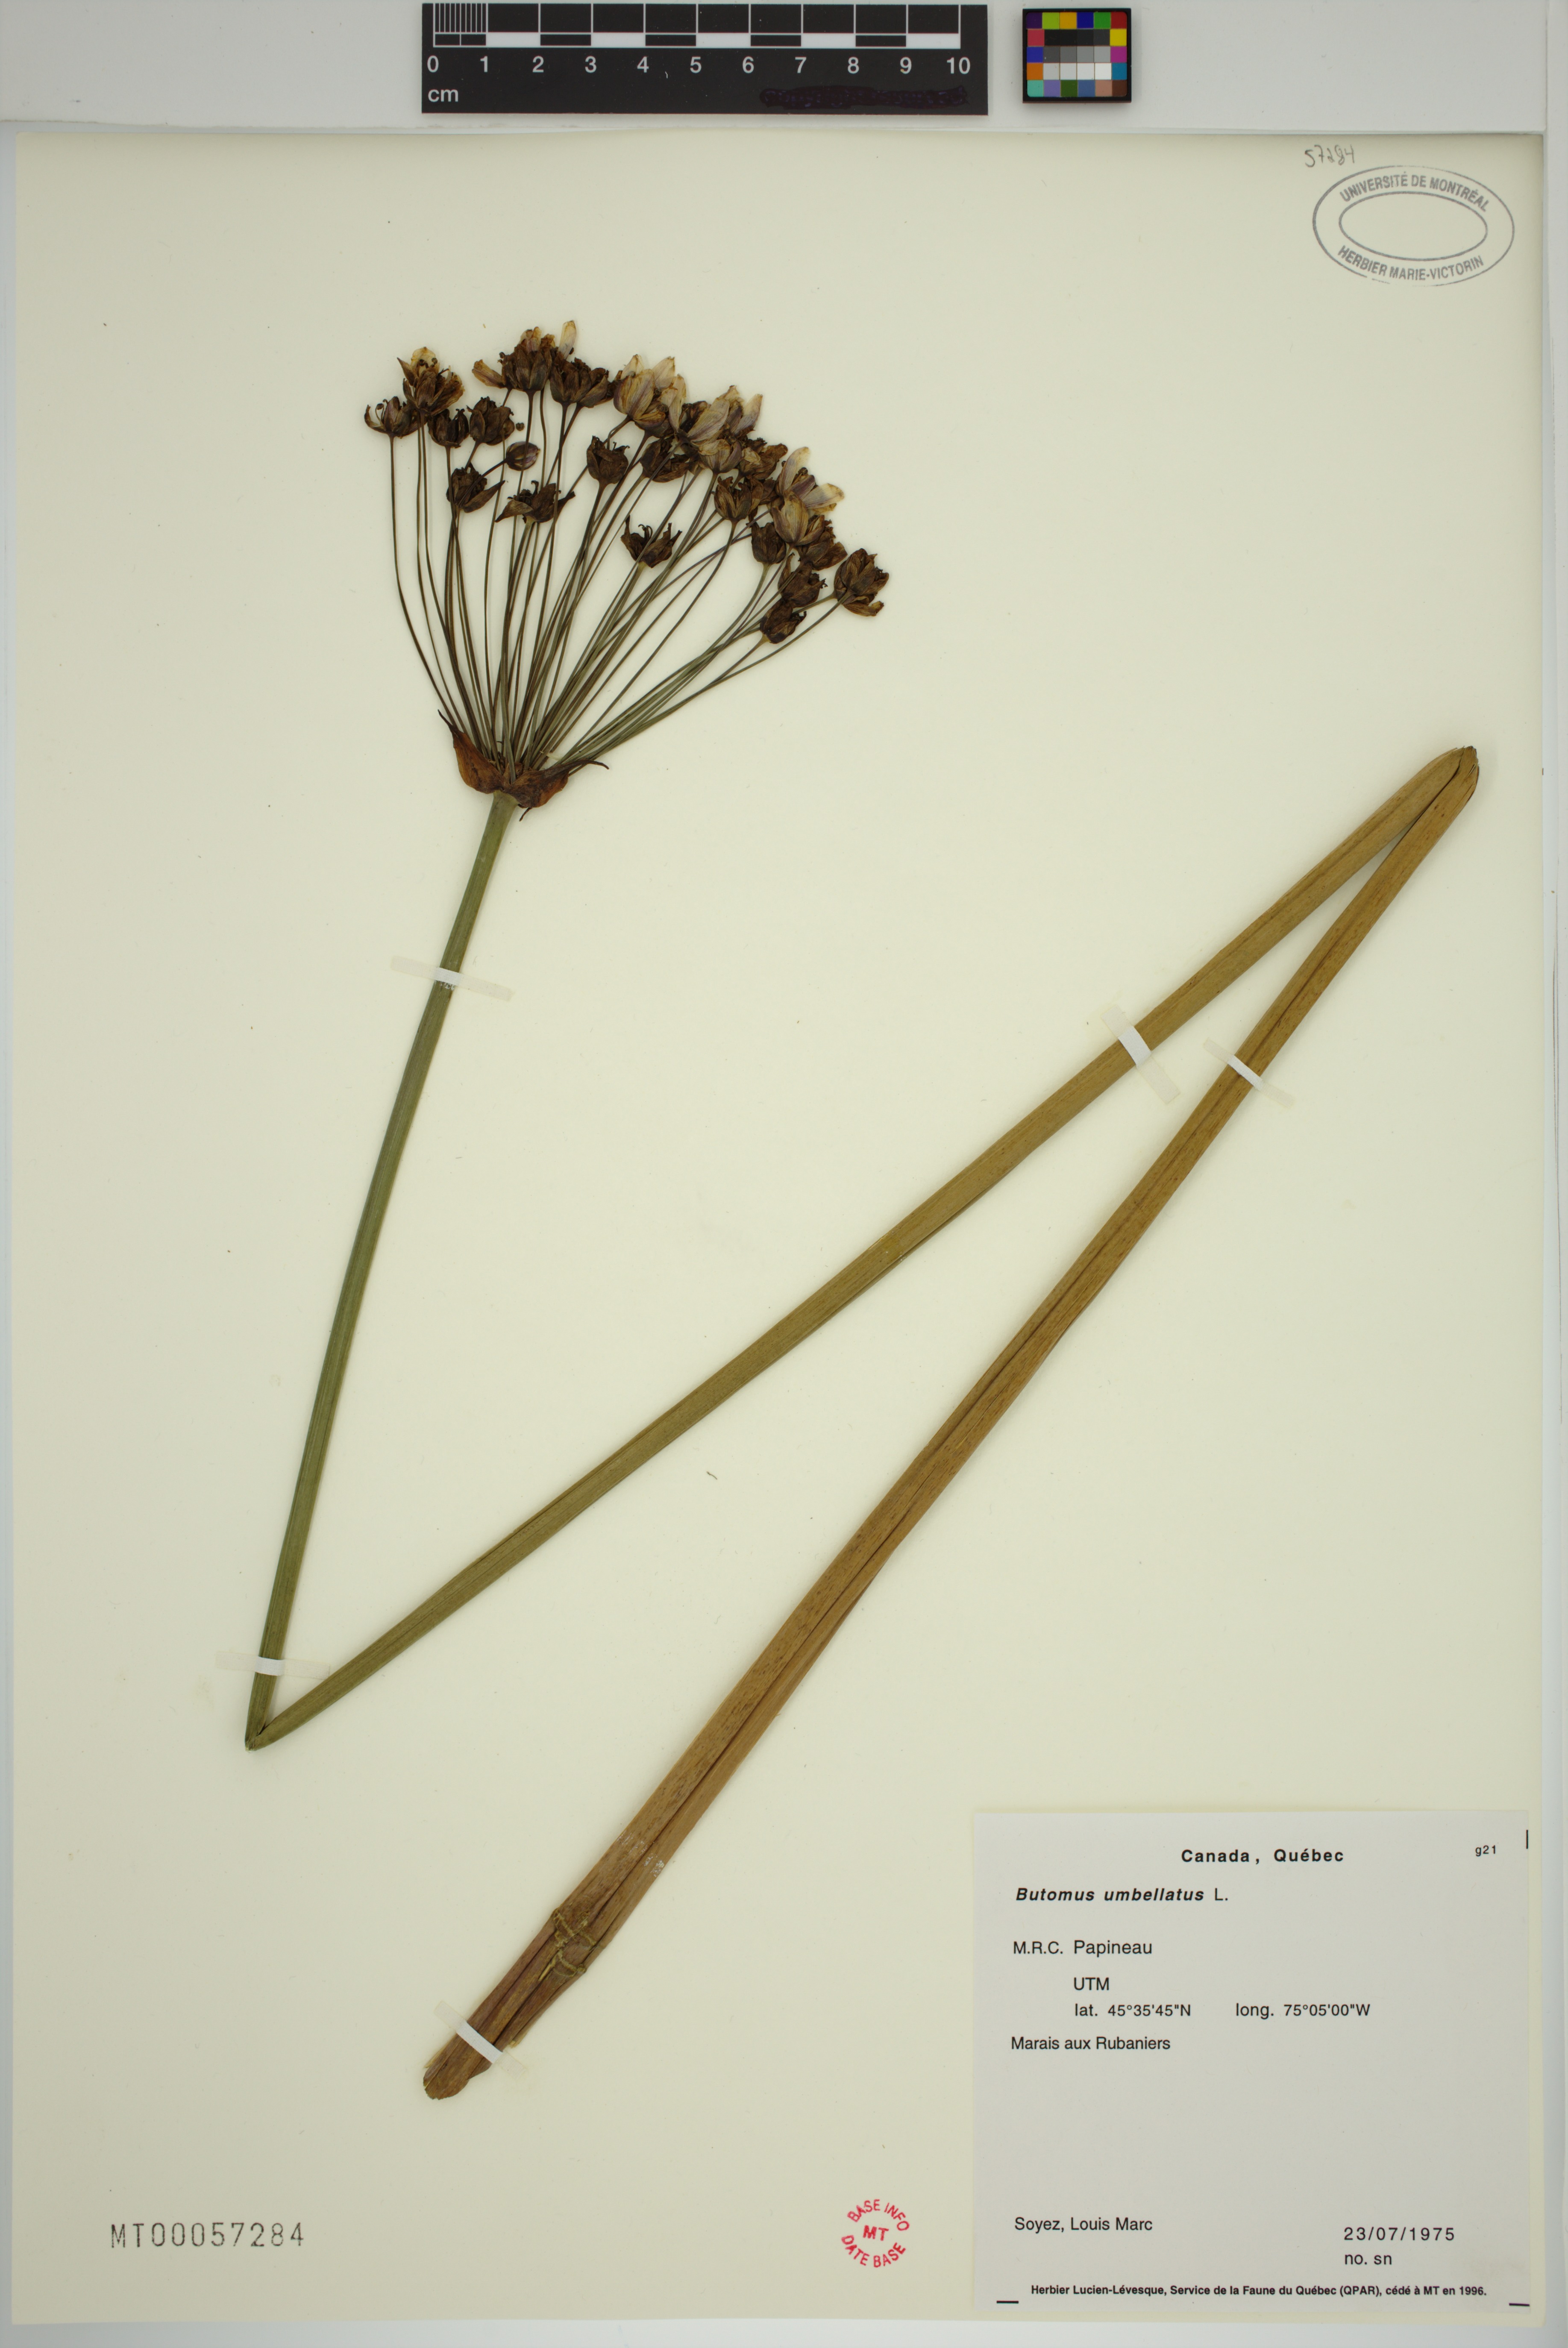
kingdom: Plantae
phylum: Tracheophyta
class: Liliopsida
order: Alismatales
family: Butomaceae
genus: Butomus
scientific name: Butomus umbellatus
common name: Flowering-rush
